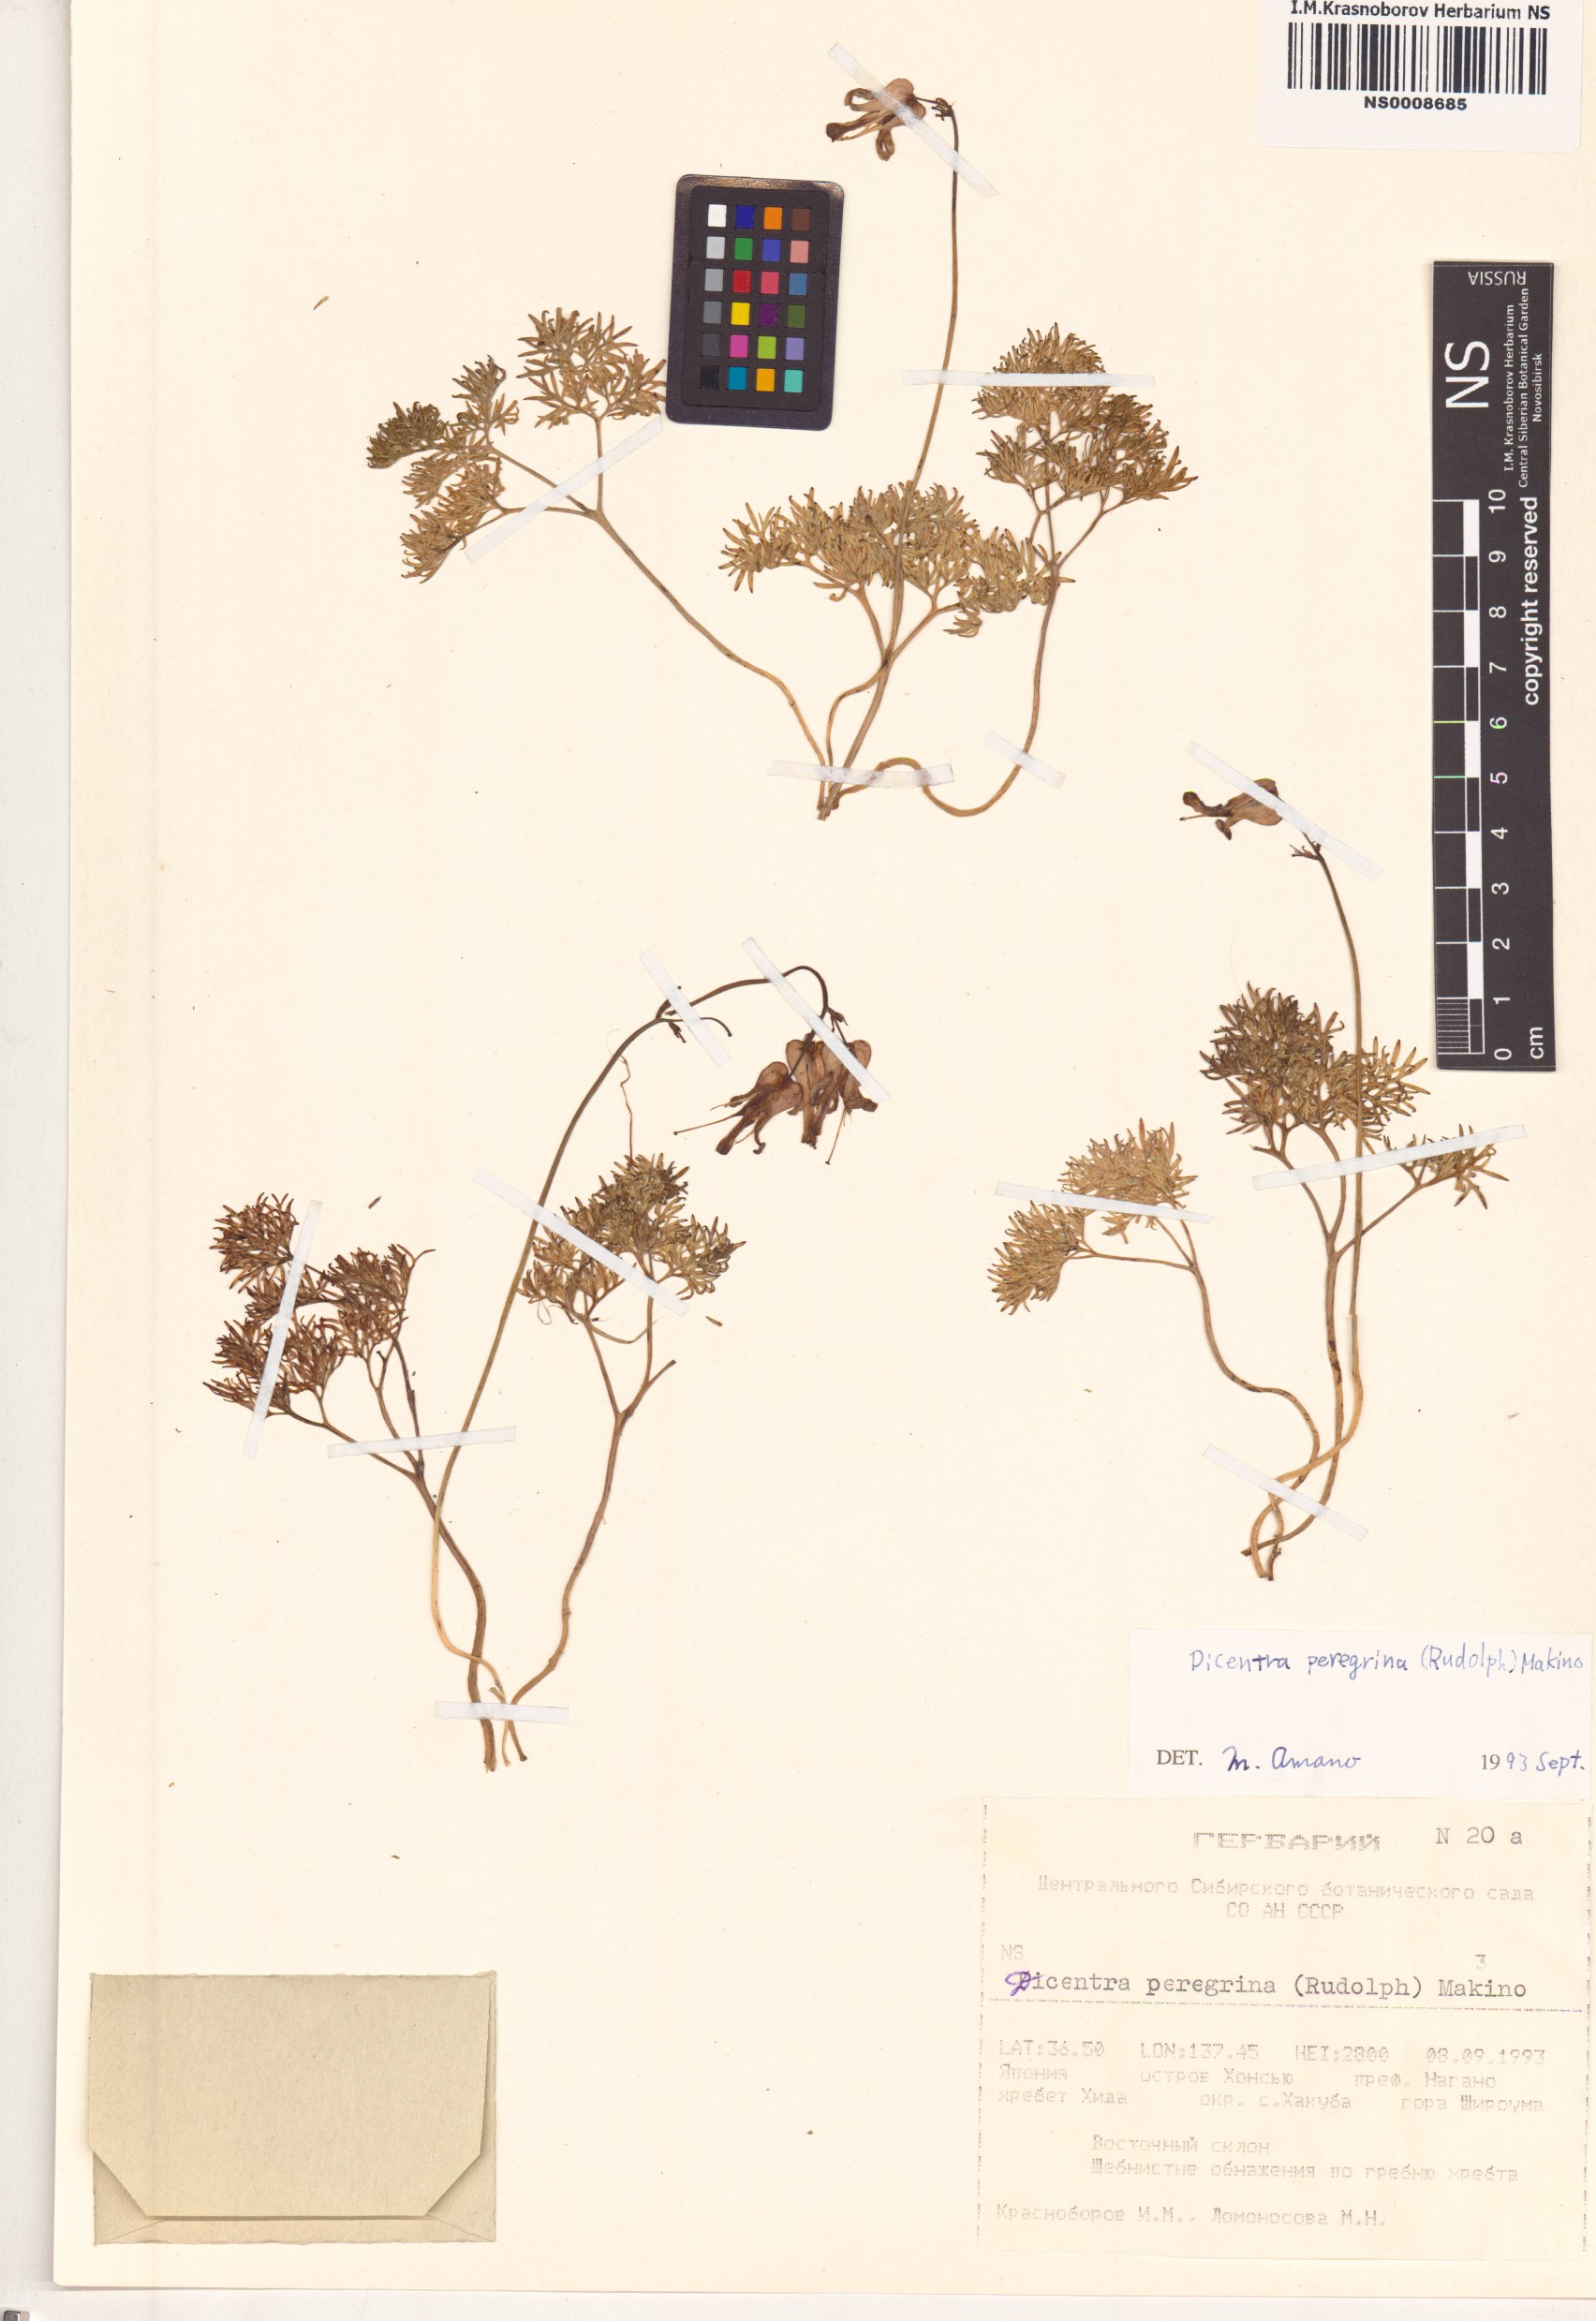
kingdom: Plantae
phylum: Tracheophyta
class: Magnoliopsida
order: Ranunculales
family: Papaveraceae
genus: Dicentra
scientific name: Dicentra peregrina
